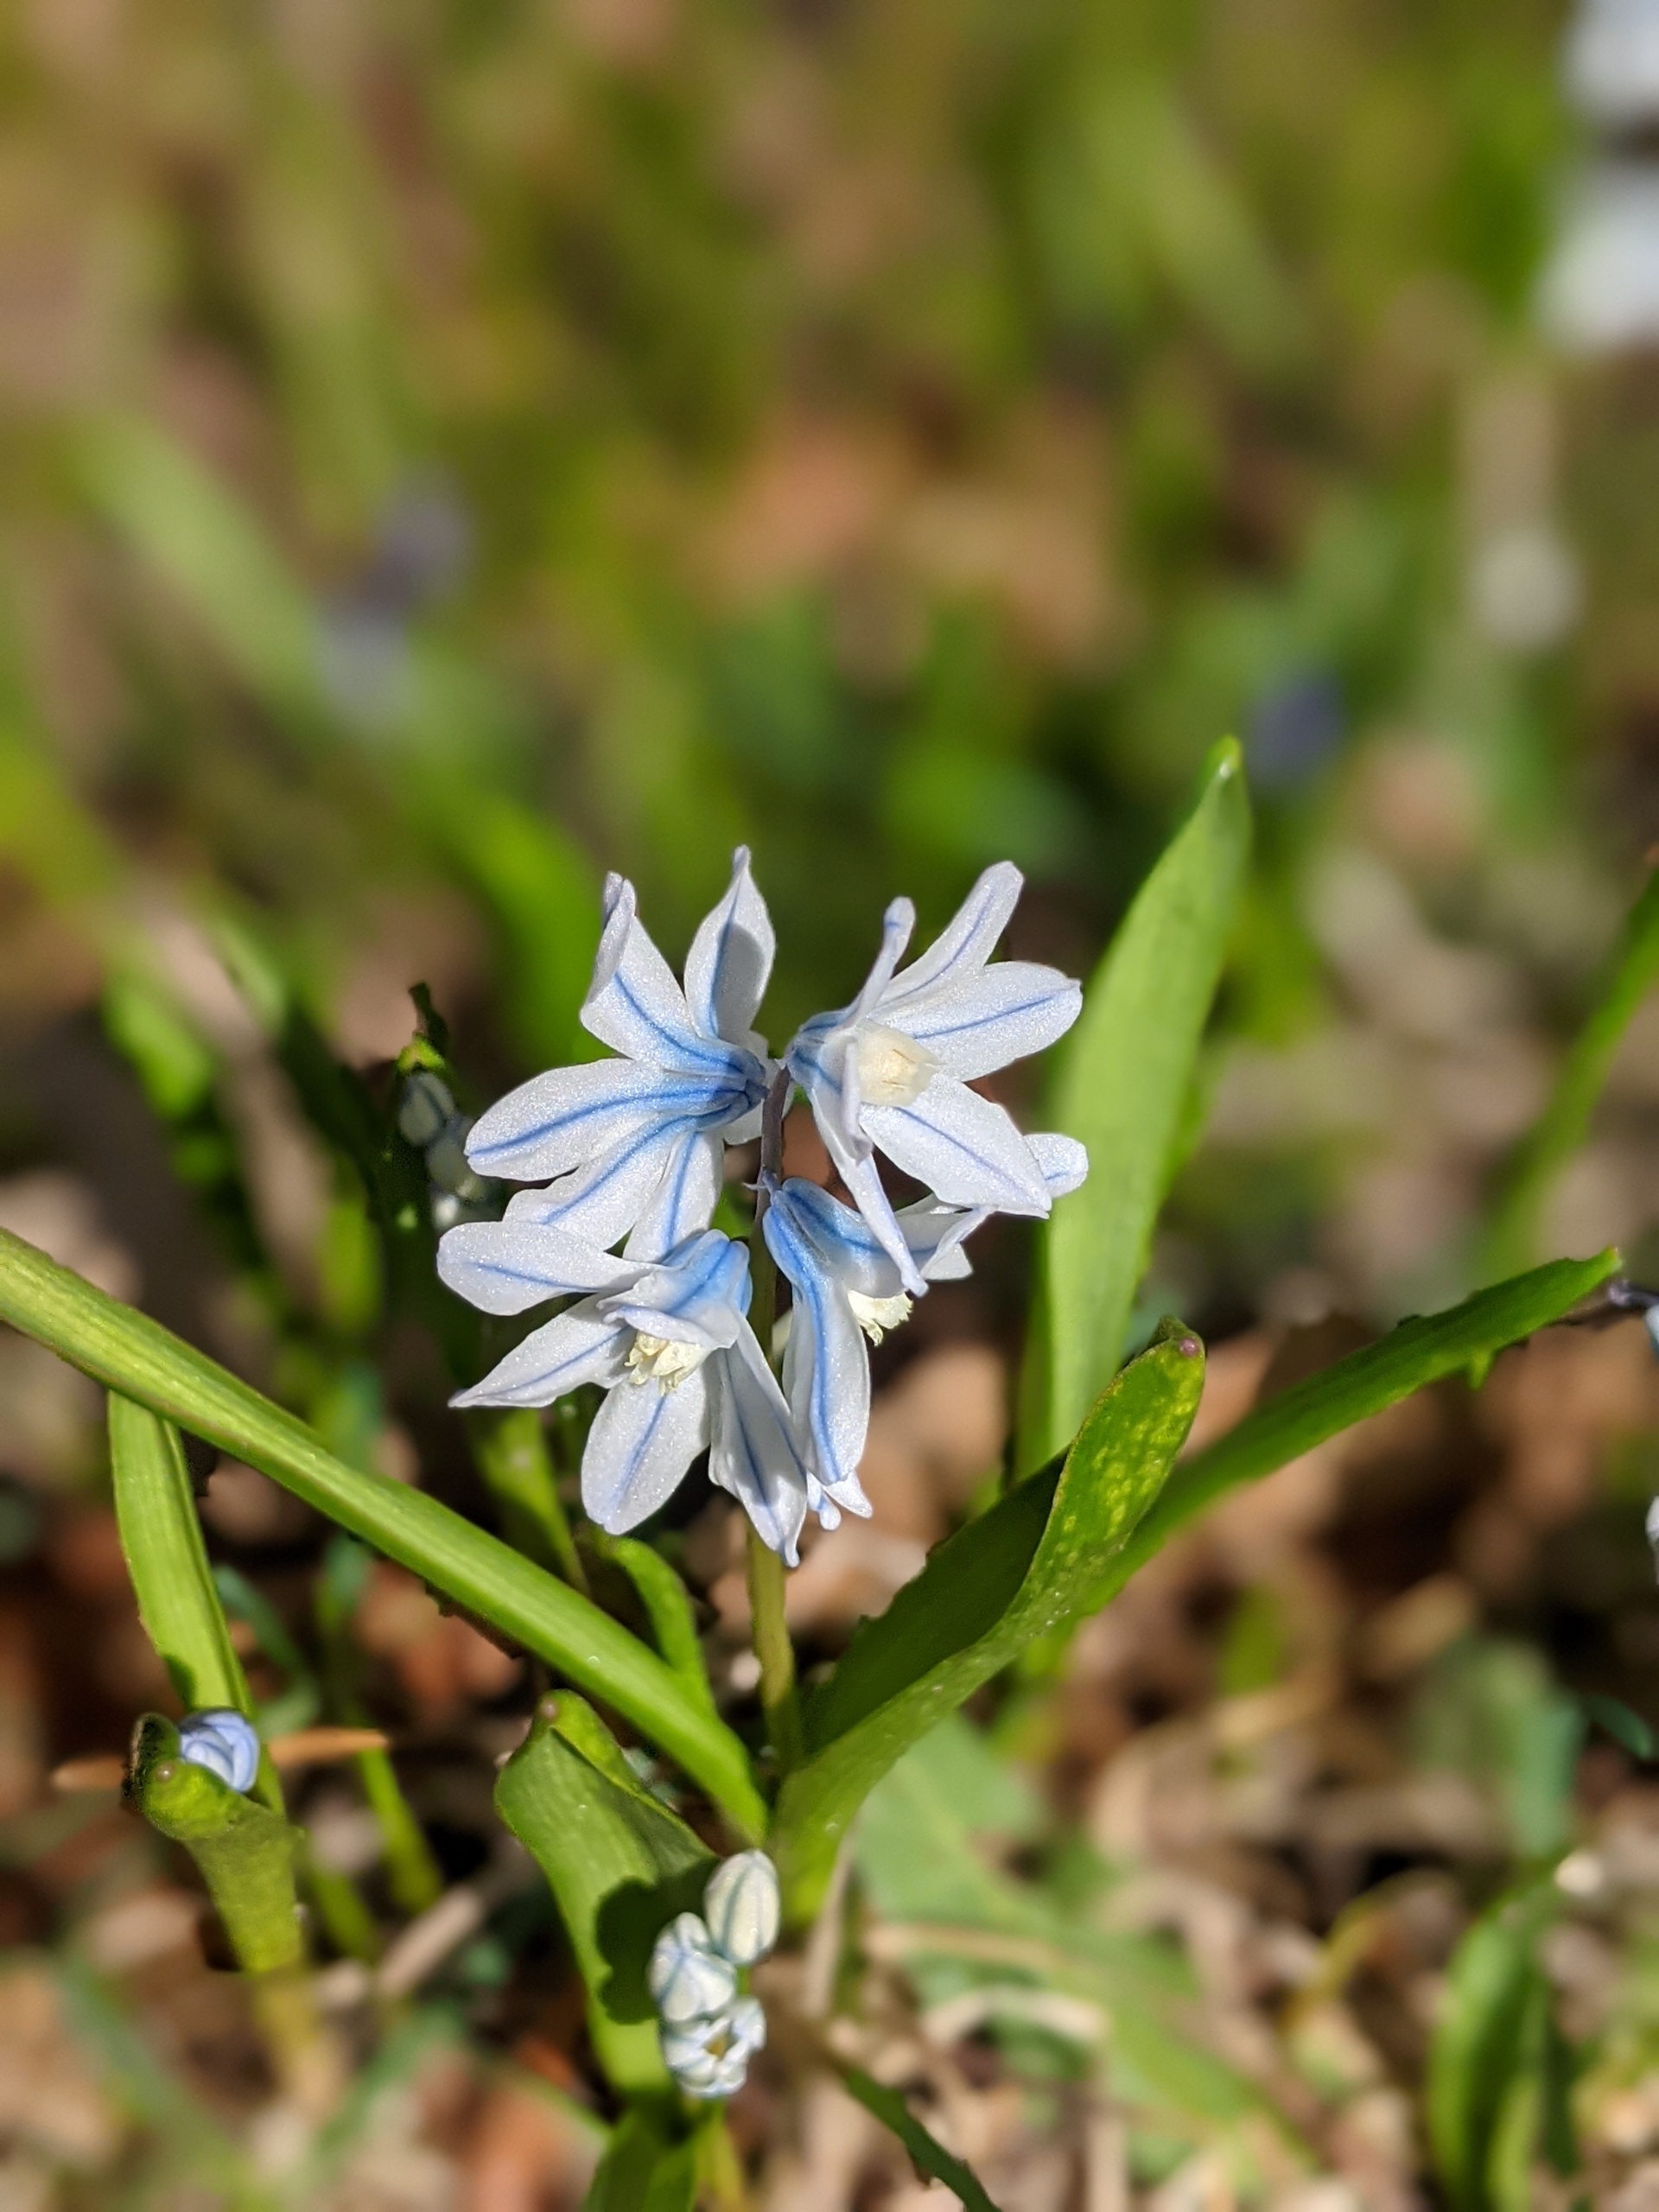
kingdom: Plantae
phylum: Tracheophyta
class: Liliopsida
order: Asparagales
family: Asparagaceae
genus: Puschkinia
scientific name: Puschkinia scilloides
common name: Porcelænshyacint
